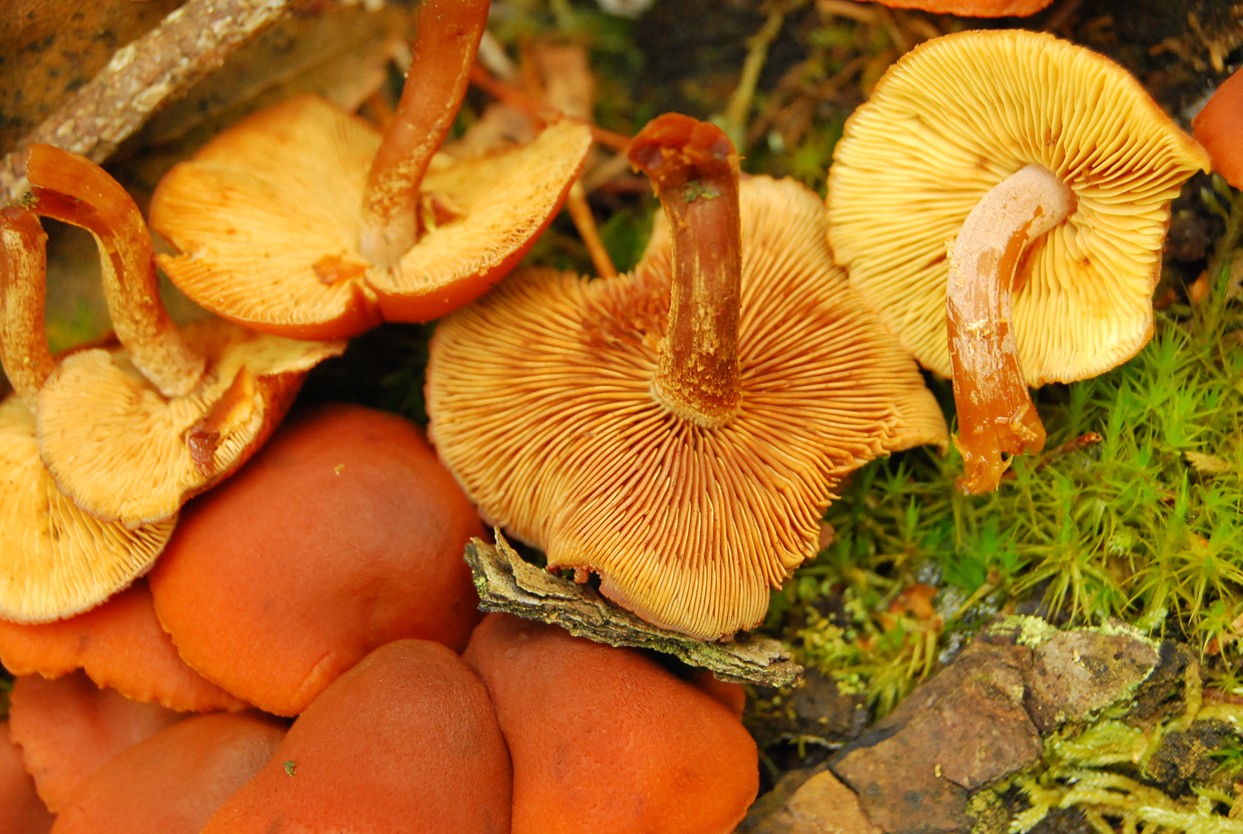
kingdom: Fungi
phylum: Basidiomycota
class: Agaricomycetes
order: Agaricales
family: Hymenogastraceae
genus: Gymnopilus
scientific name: Gymnopilus picreus
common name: puklet flammehat
